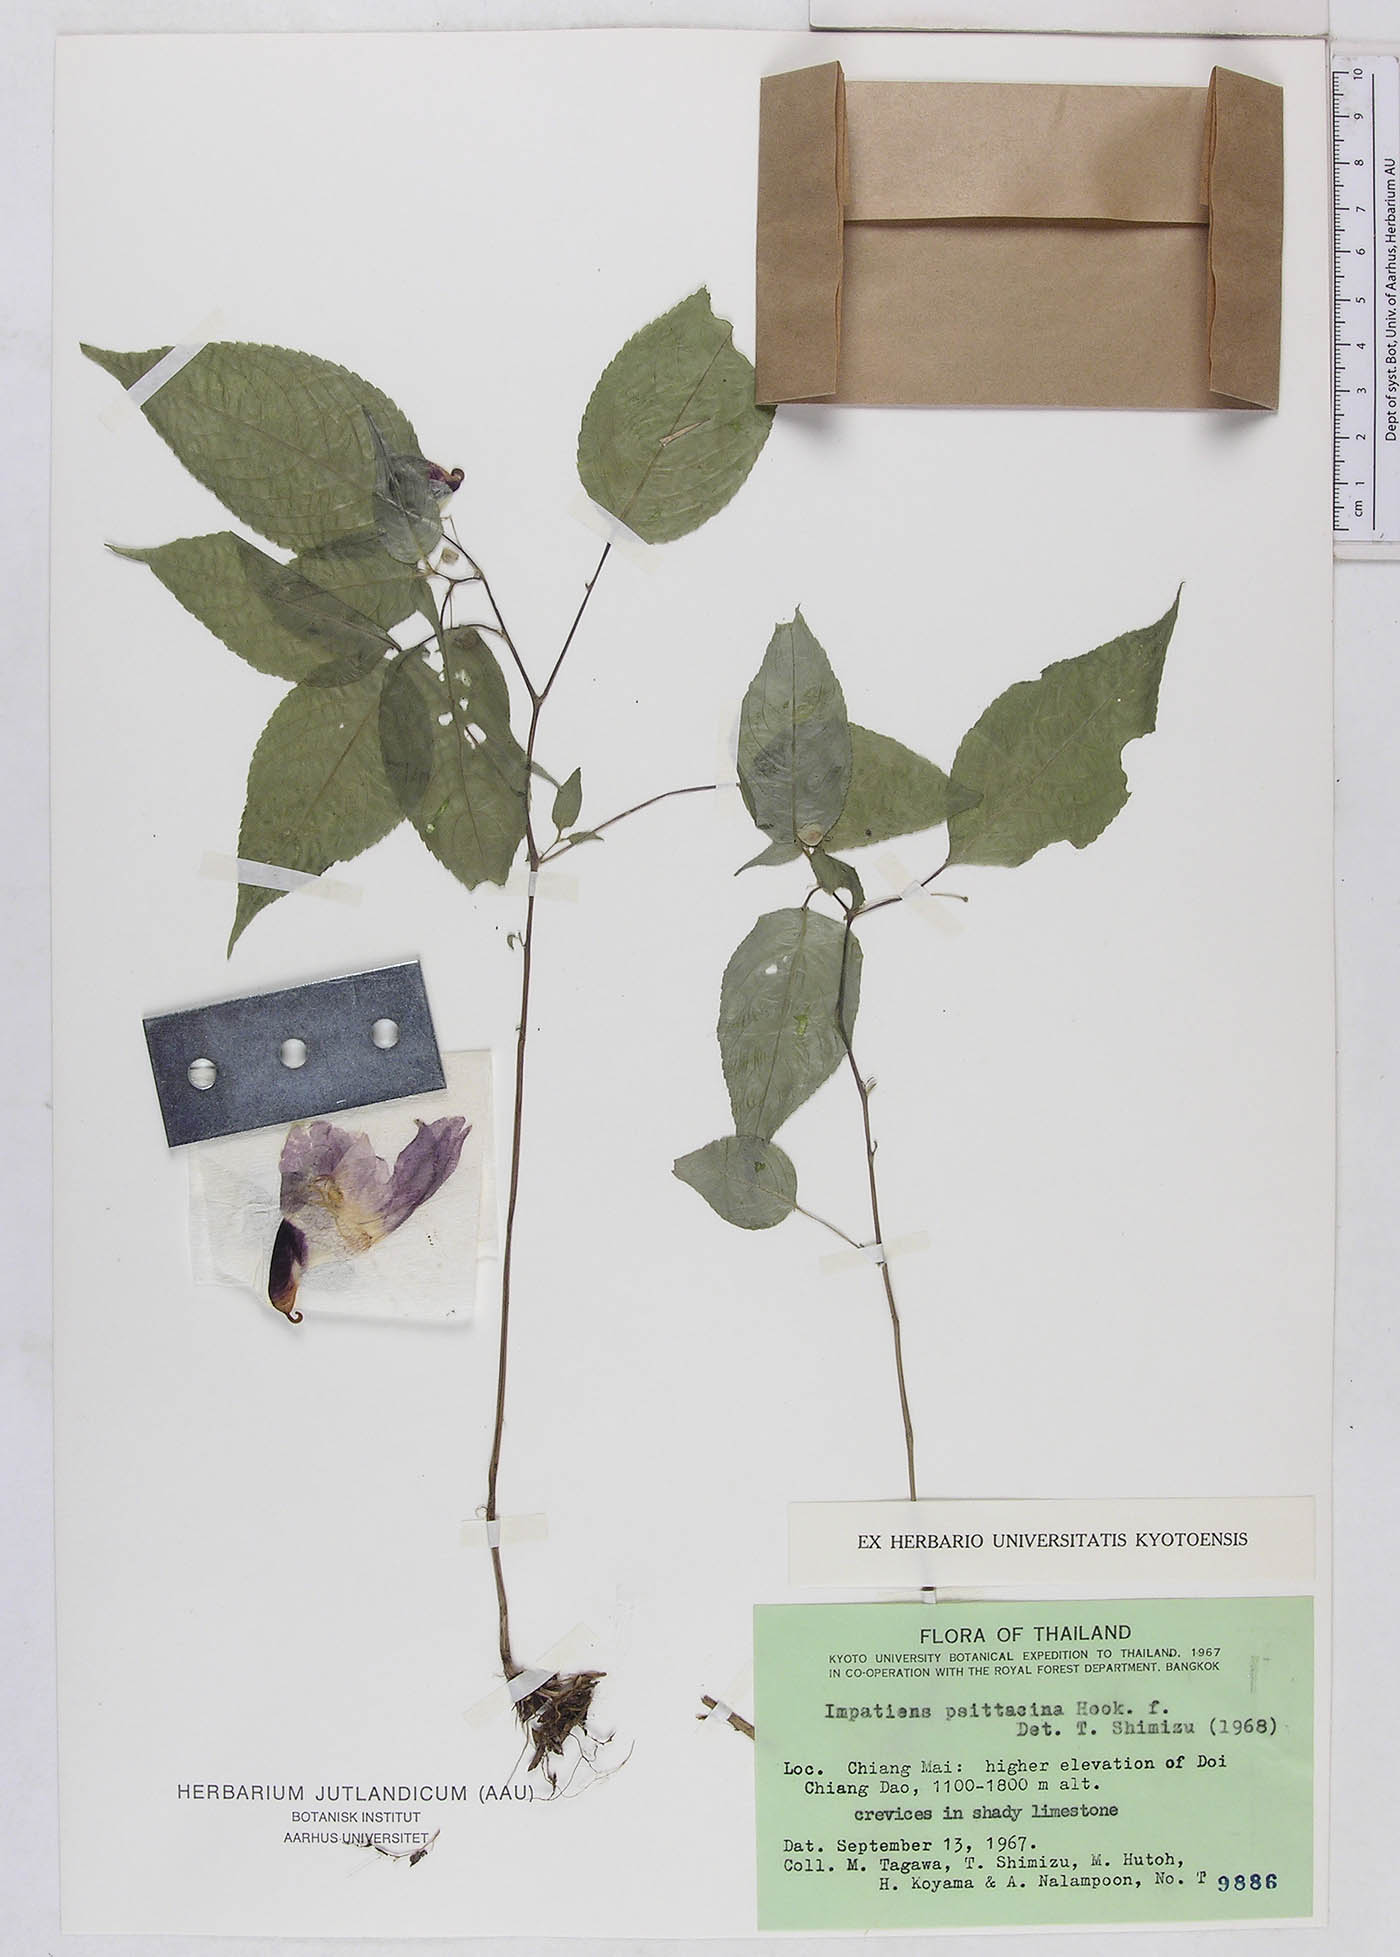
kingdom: Plantae
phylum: Tracheophyta
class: Magnoliopsida
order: Ericales
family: Balsaminaceae
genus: Impatiens
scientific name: Impatiens psittacina
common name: Parrot-flower
